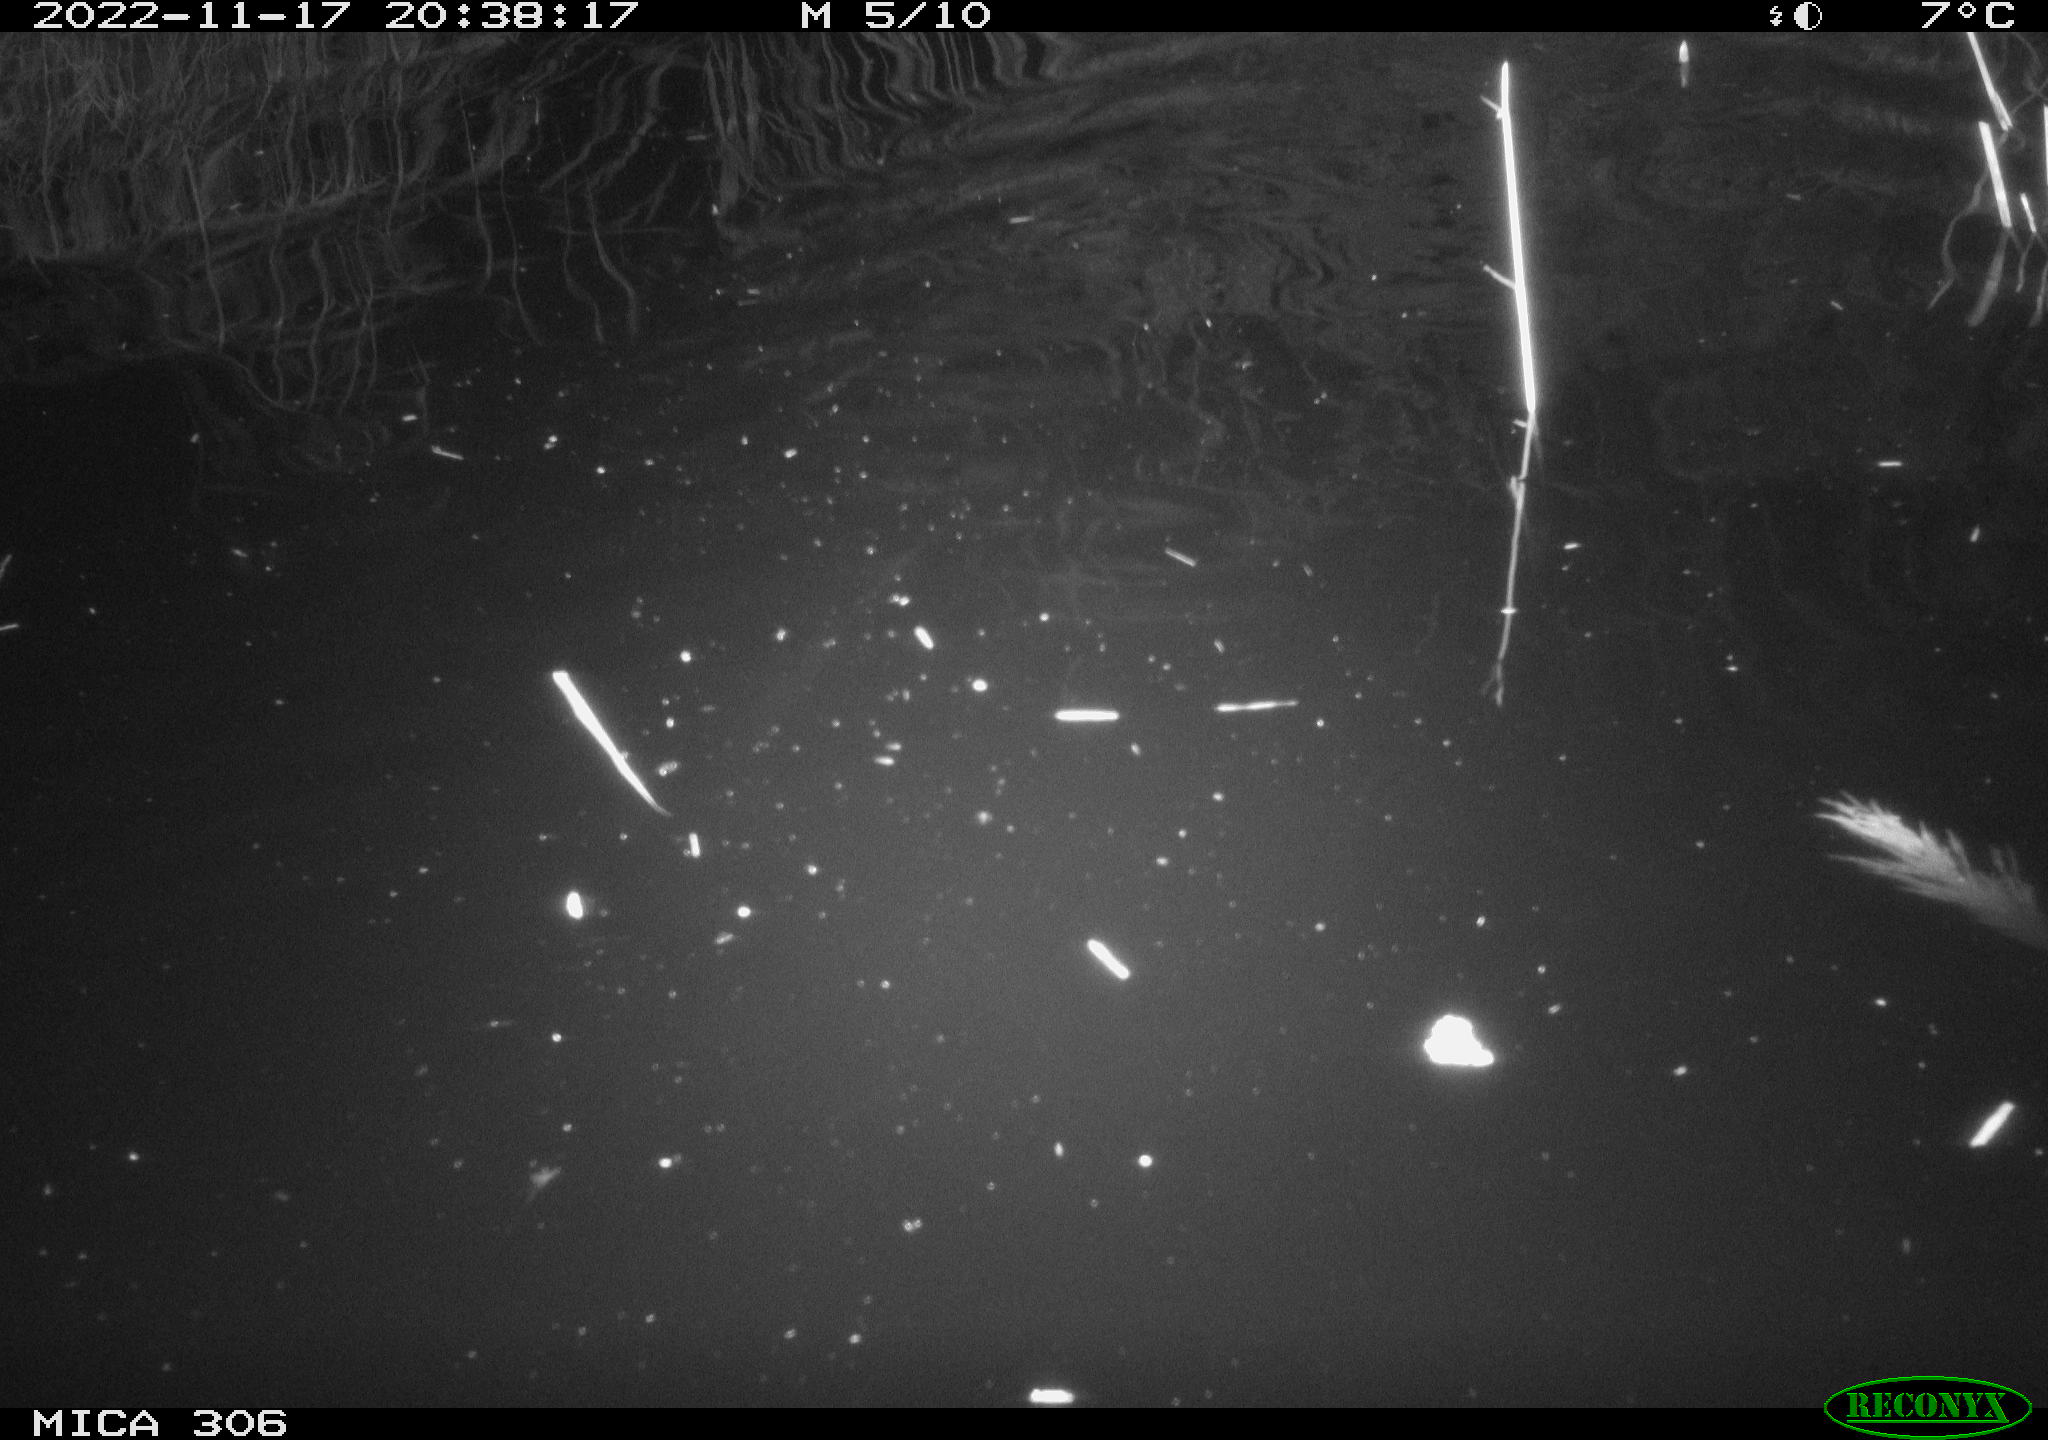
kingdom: Animalia
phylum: Chordata
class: Mammalia
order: Rodentia
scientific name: Rodentia
